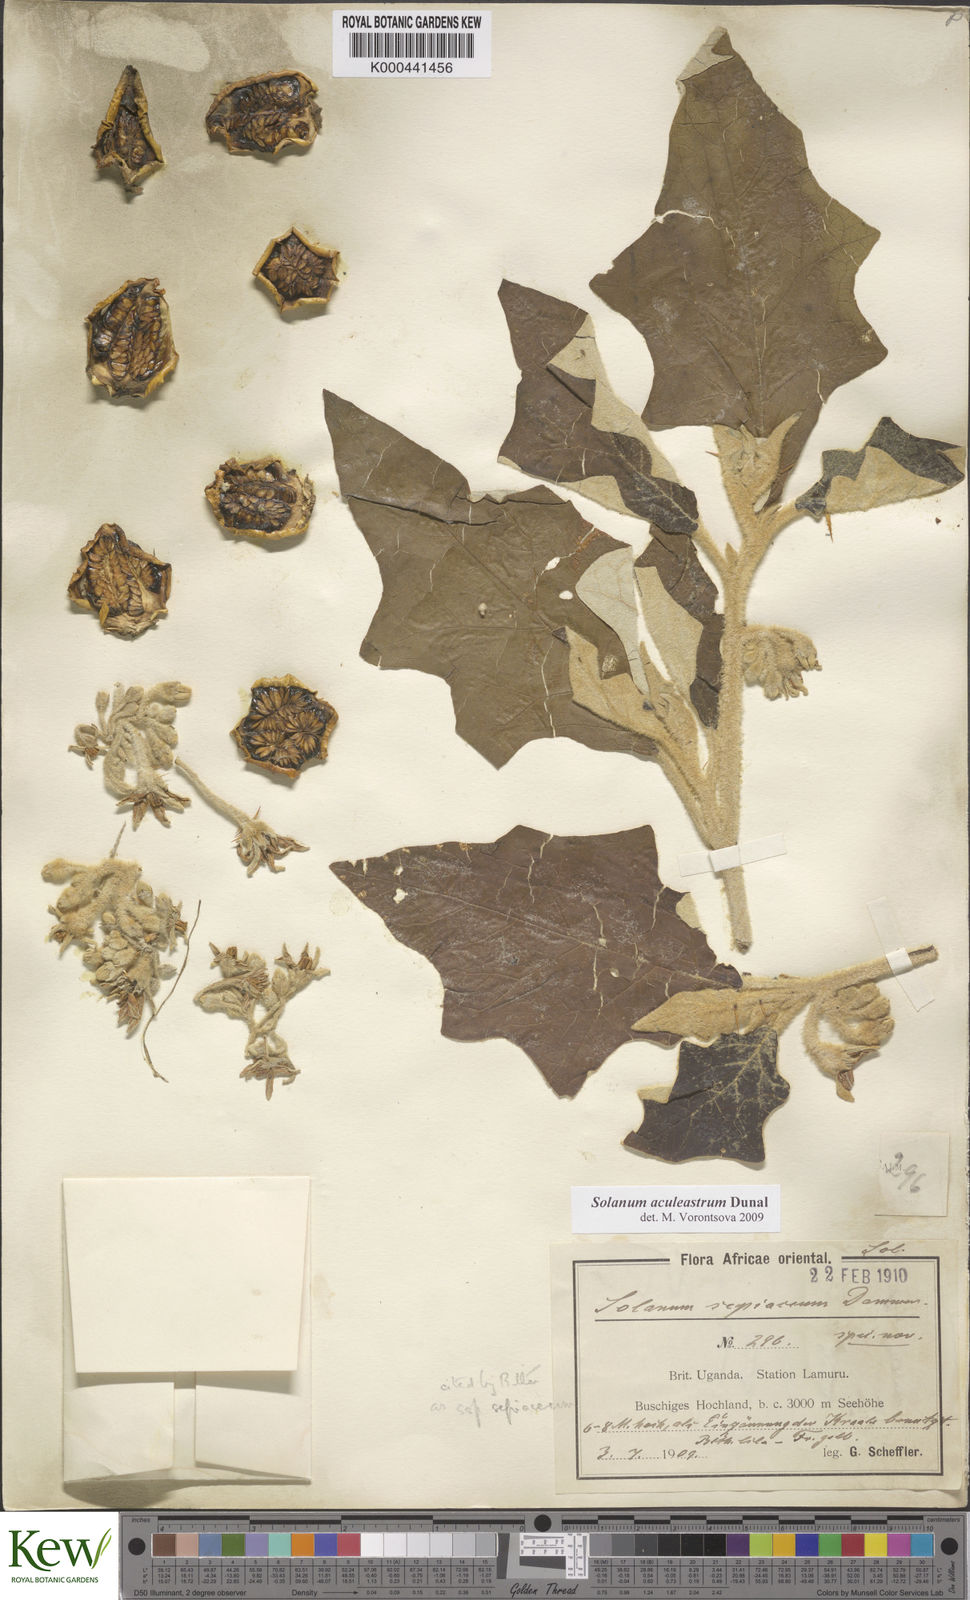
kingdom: Plantae
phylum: Tracheophyta
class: Magnoliopsida
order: Solanales
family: Solanaceae
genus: Solanum
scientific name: Solanum aculeastrum
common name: Goat bitter-apple
